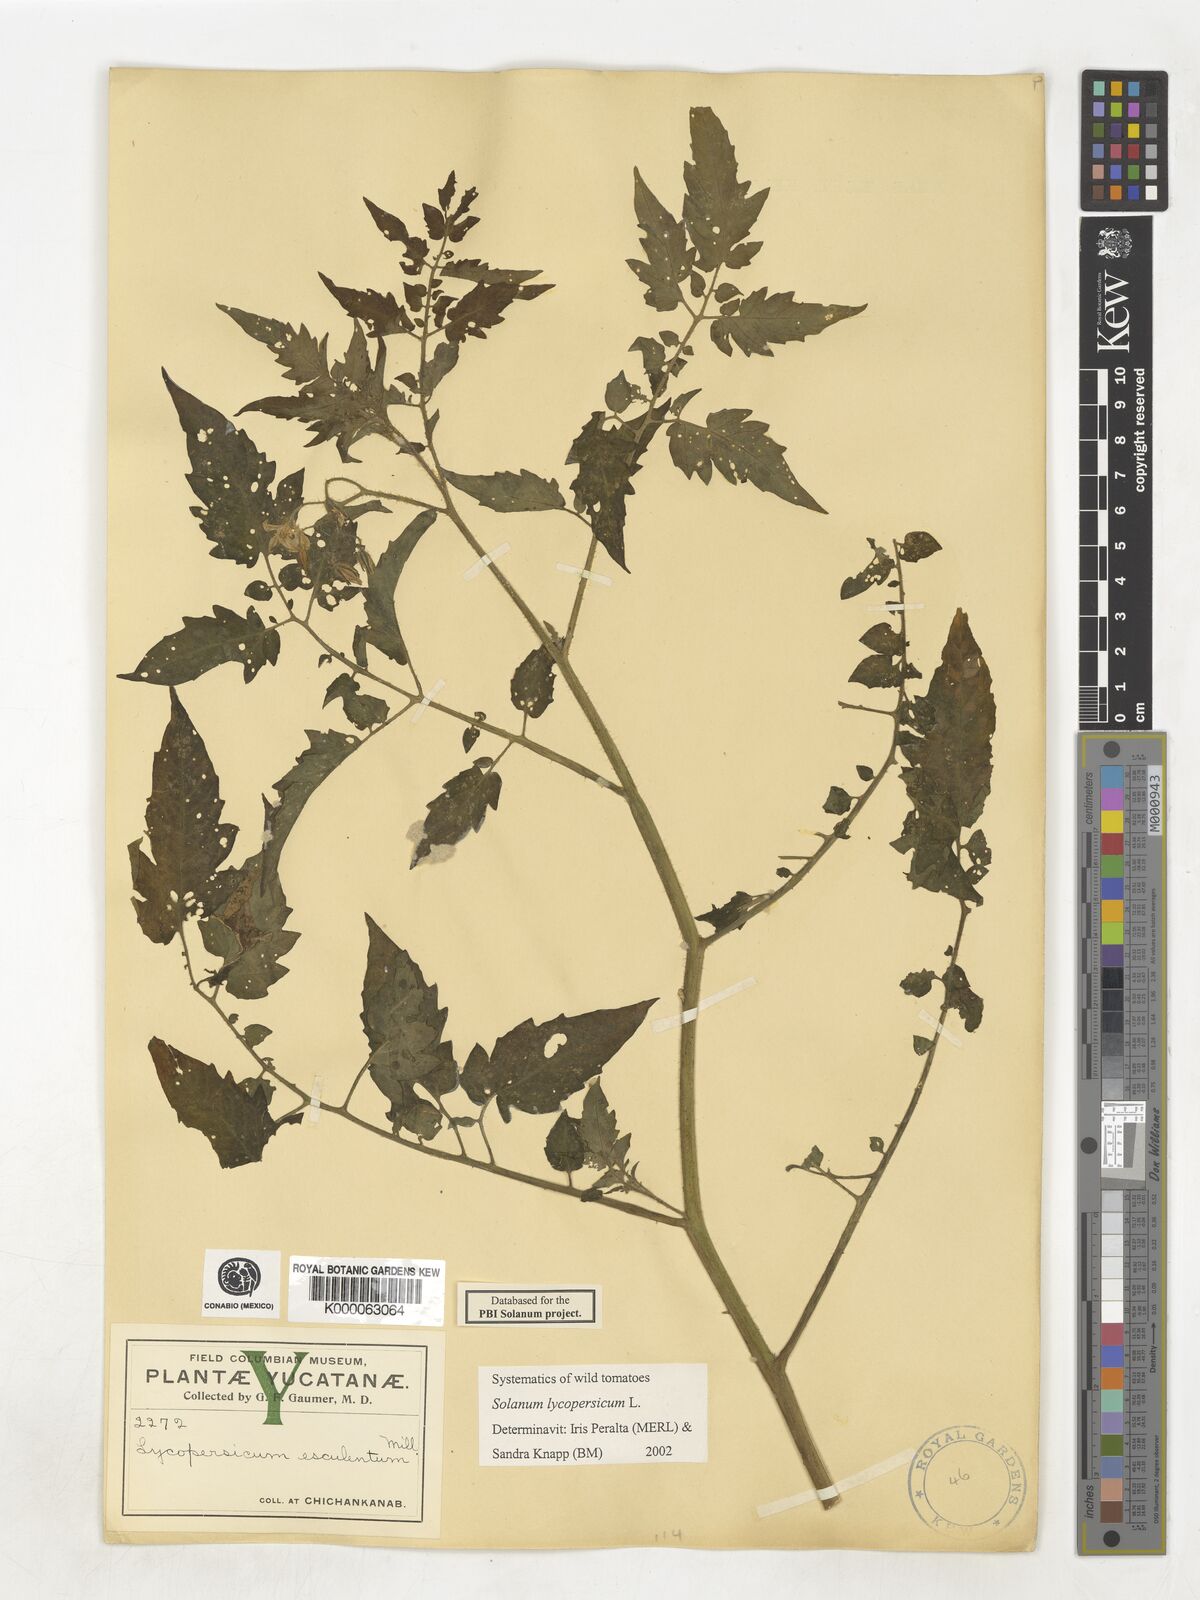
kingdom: Plantae
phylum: Tracheophyta
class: Magnoliopsida
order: Solanales
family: Solanaceae
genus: Lycopersicon
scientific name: Lycopersicon
